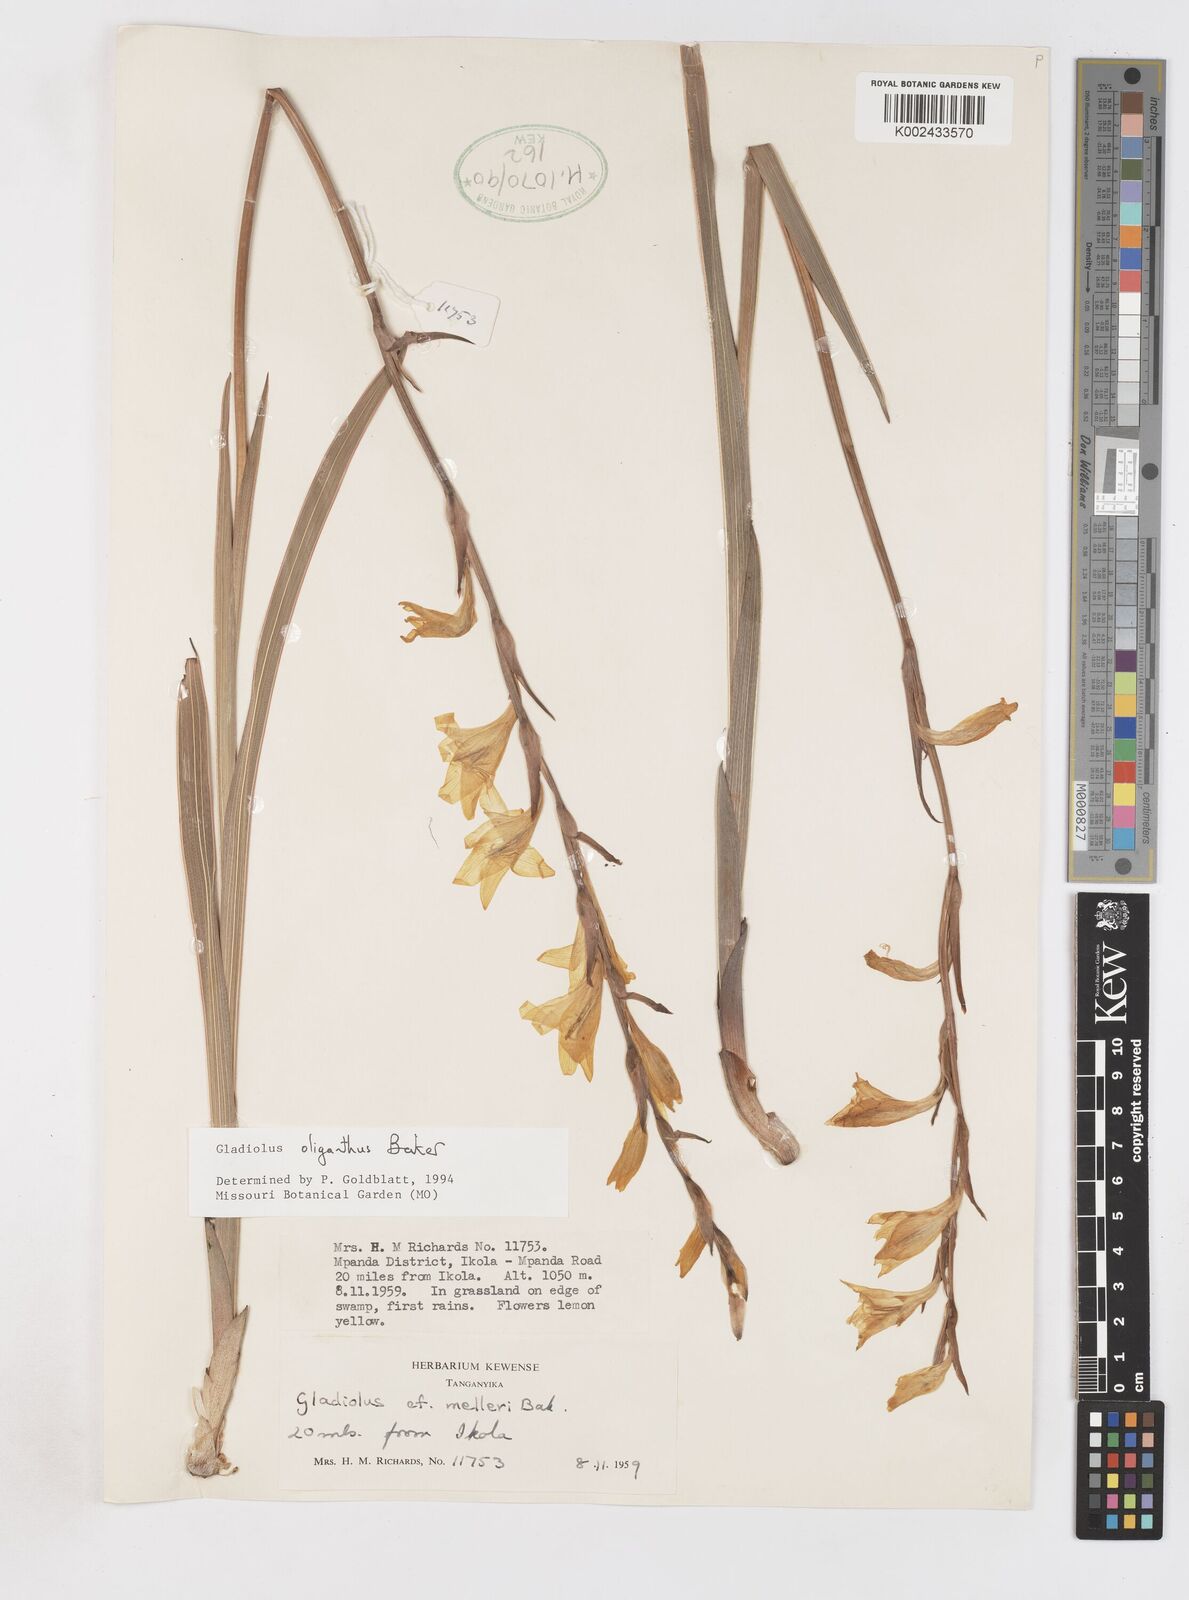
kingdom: Plantae
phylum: Tracheophyta
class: Liliopsida
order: Asparagales
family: Iridaceae
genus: Gladiolus
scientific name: Gladiolus oliganthus
